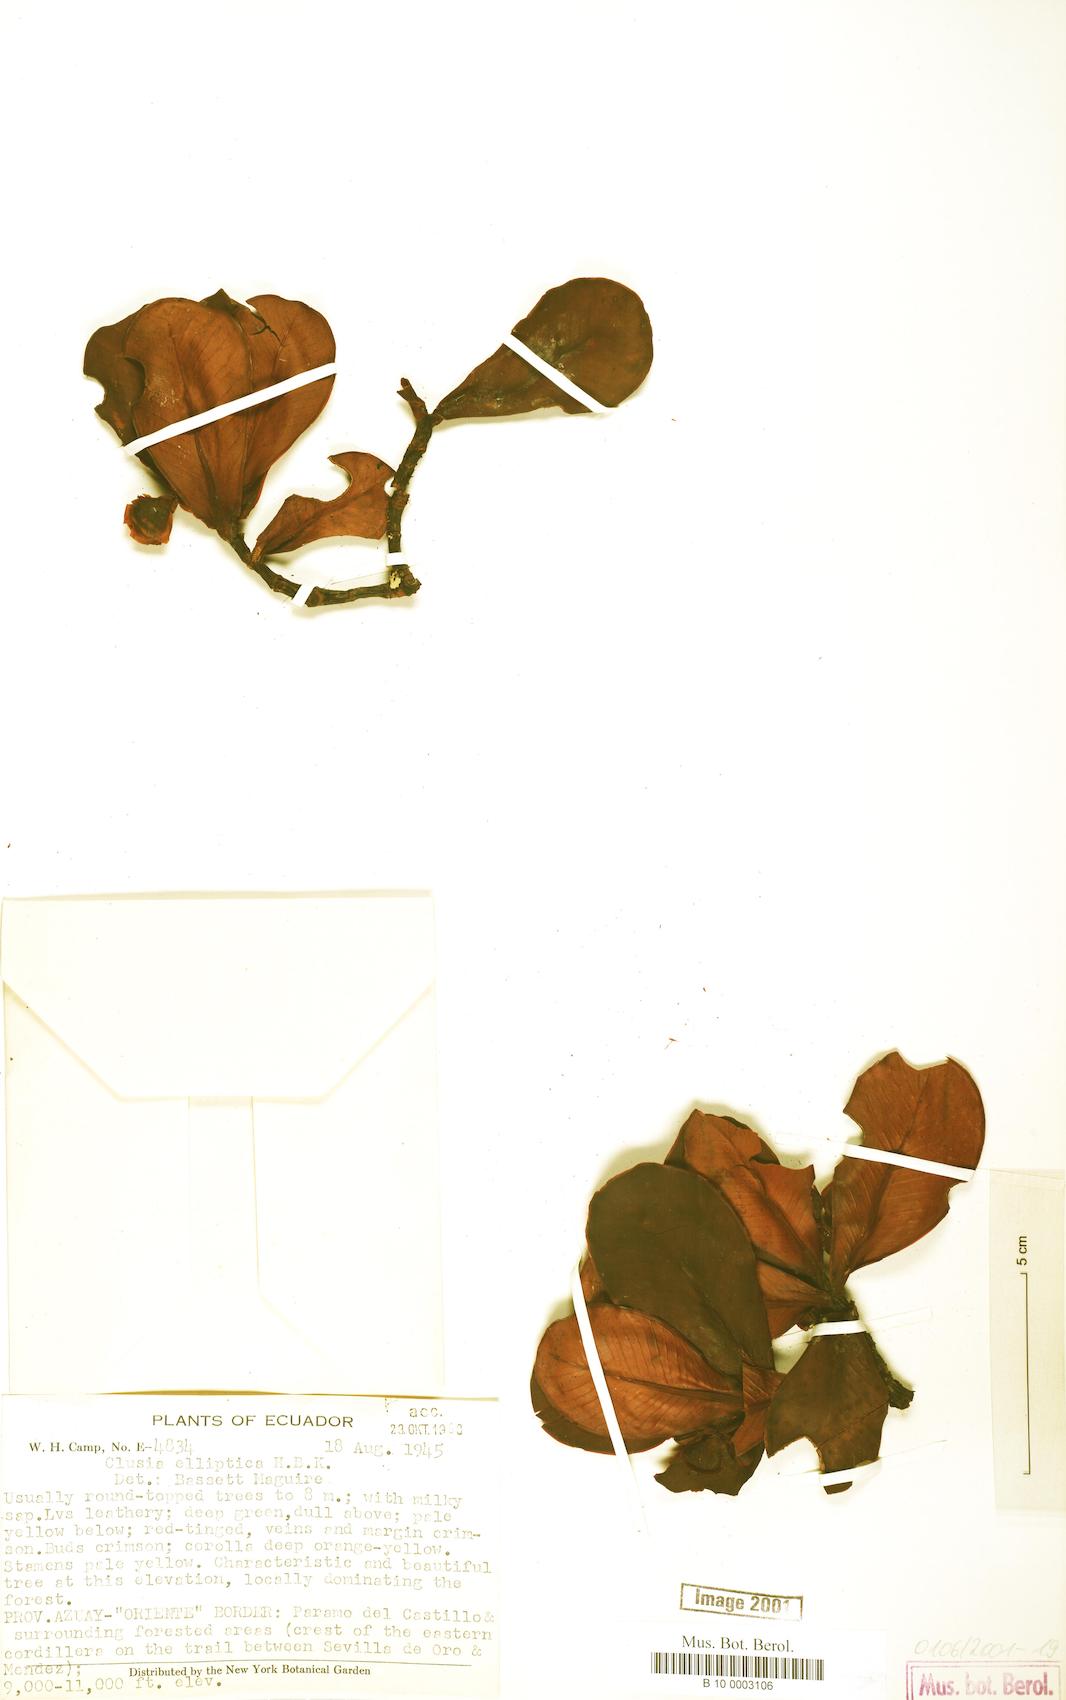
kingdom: Plantae
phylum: Tracheophyta
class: Magnoliopsida
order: Malpighiales
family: Clusiaceae
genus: Clusia
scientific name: Clusia elliptica
